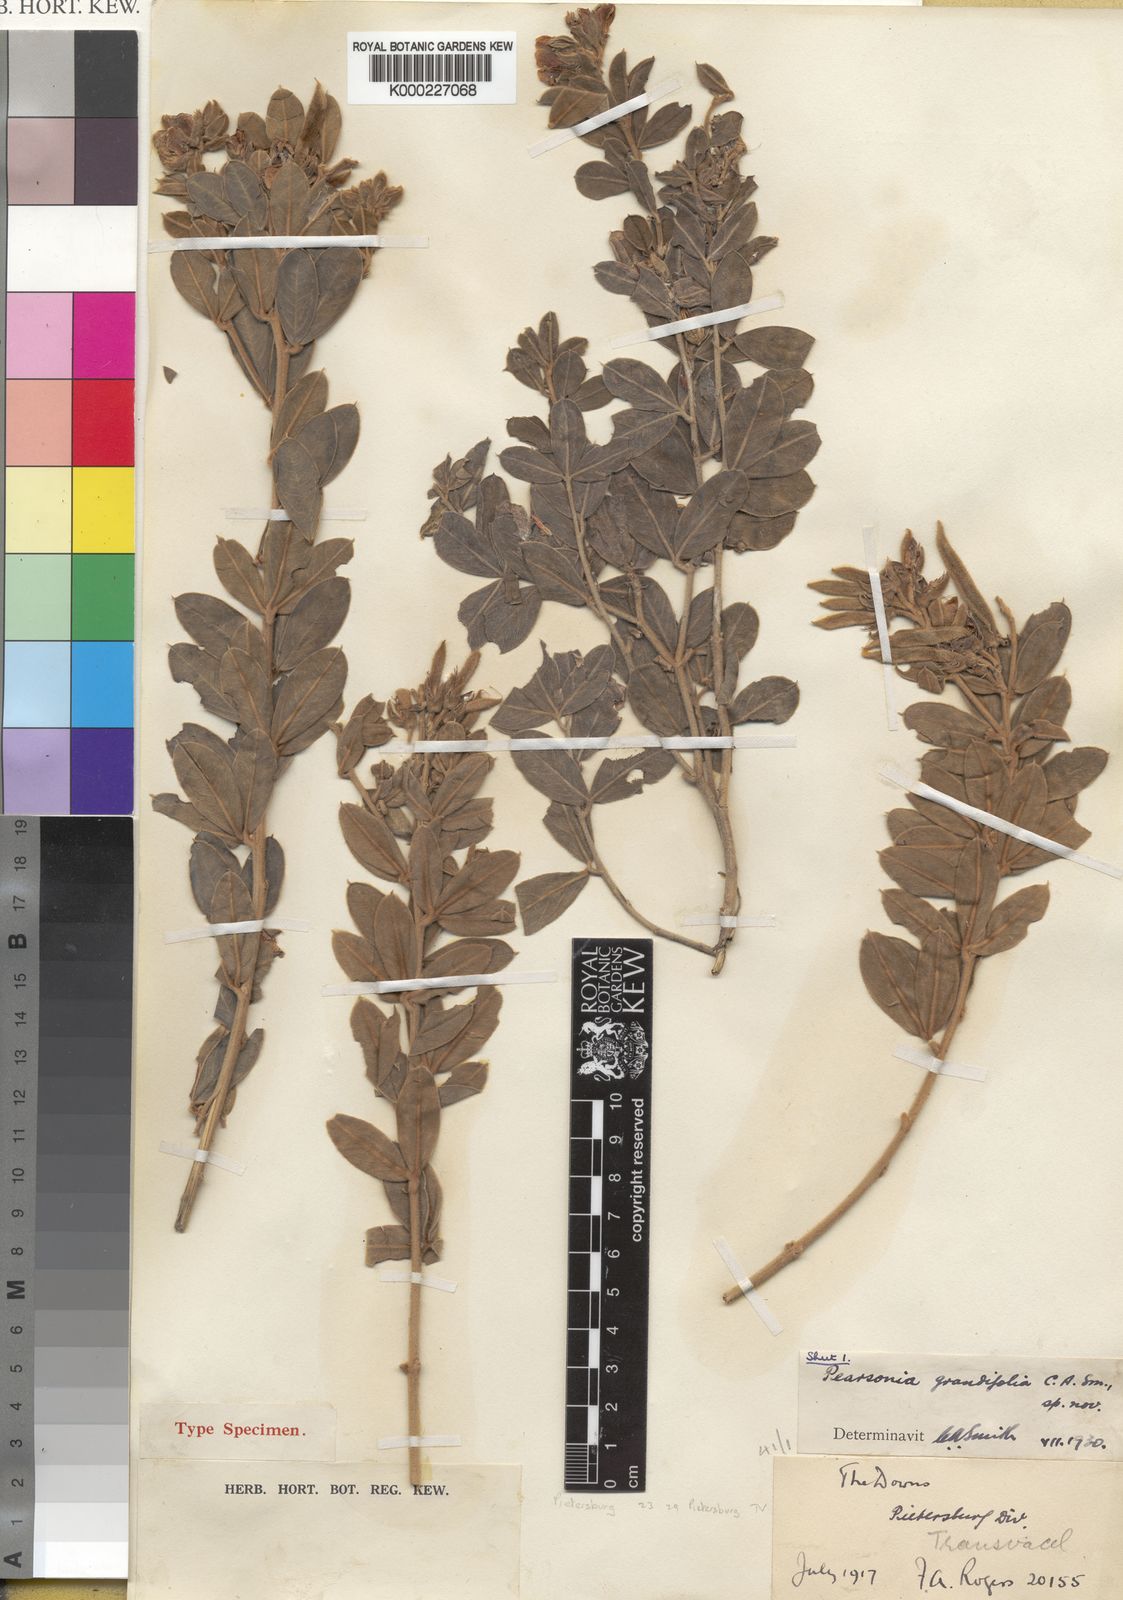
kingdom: Plantae
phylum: Tracheophyta
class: Magnoliopsida
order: Fabales
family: Fabaceae
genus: Argyrolobium
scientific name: Argyrolobium
